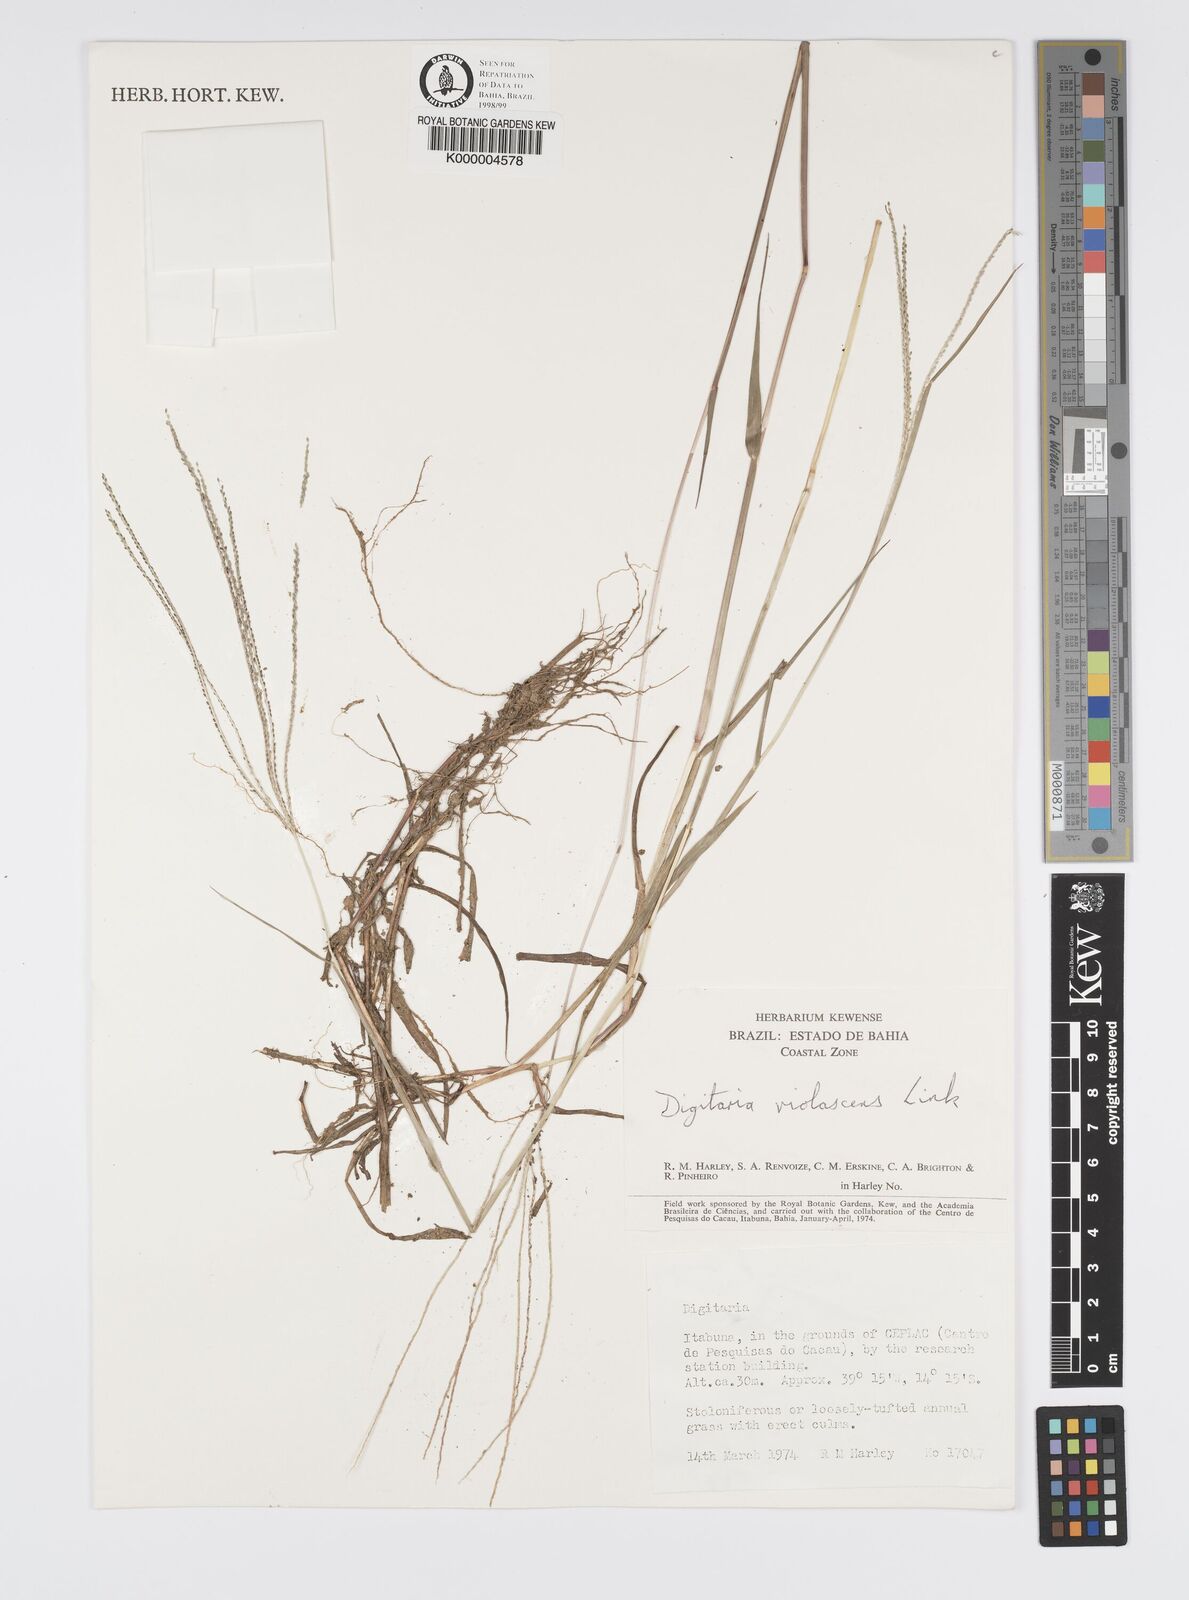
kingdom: Plantae
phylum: Tracheophyta
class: Liliopsida
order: Poales
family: Poaceae
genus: Digitaria
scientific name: Digitaria violascens
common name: Violet crabgrass
